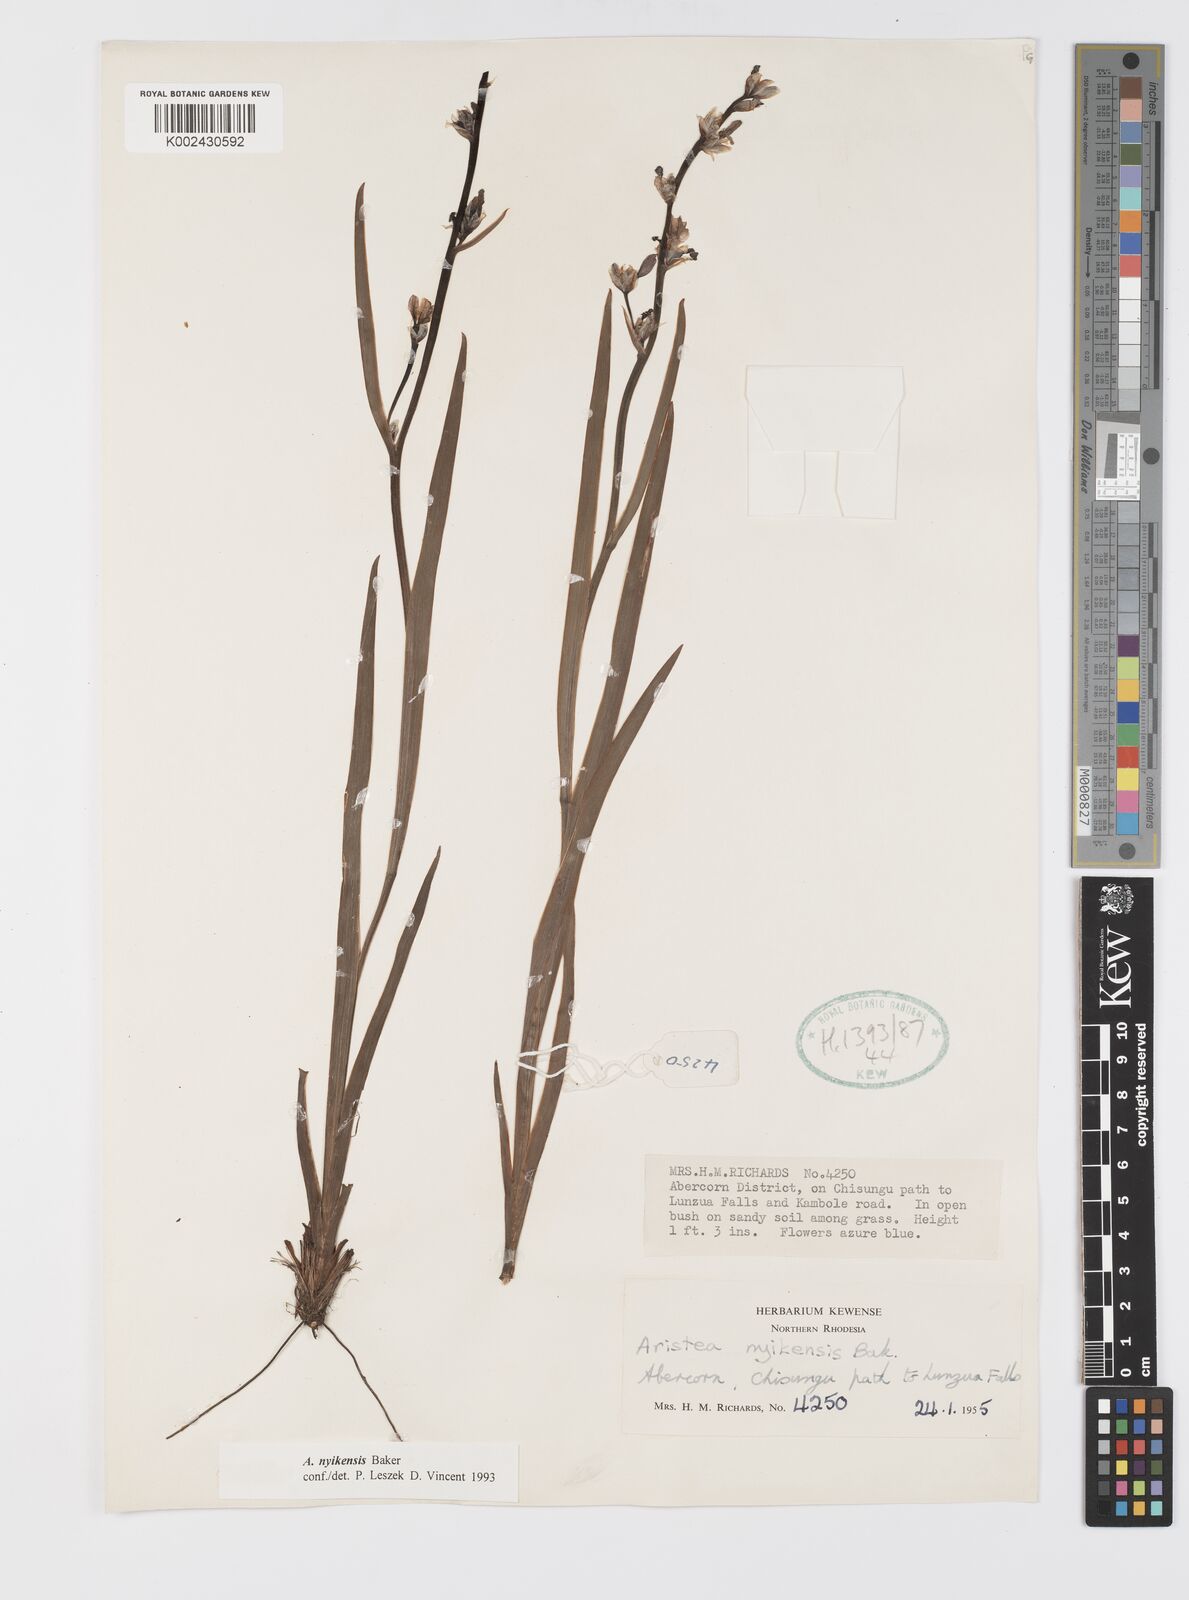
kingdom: Plantae
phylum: Tracheophyta
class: Liliopsida
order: Asparagales
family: Iridaceae
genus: Aristea
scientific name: Aristea nyikensis
